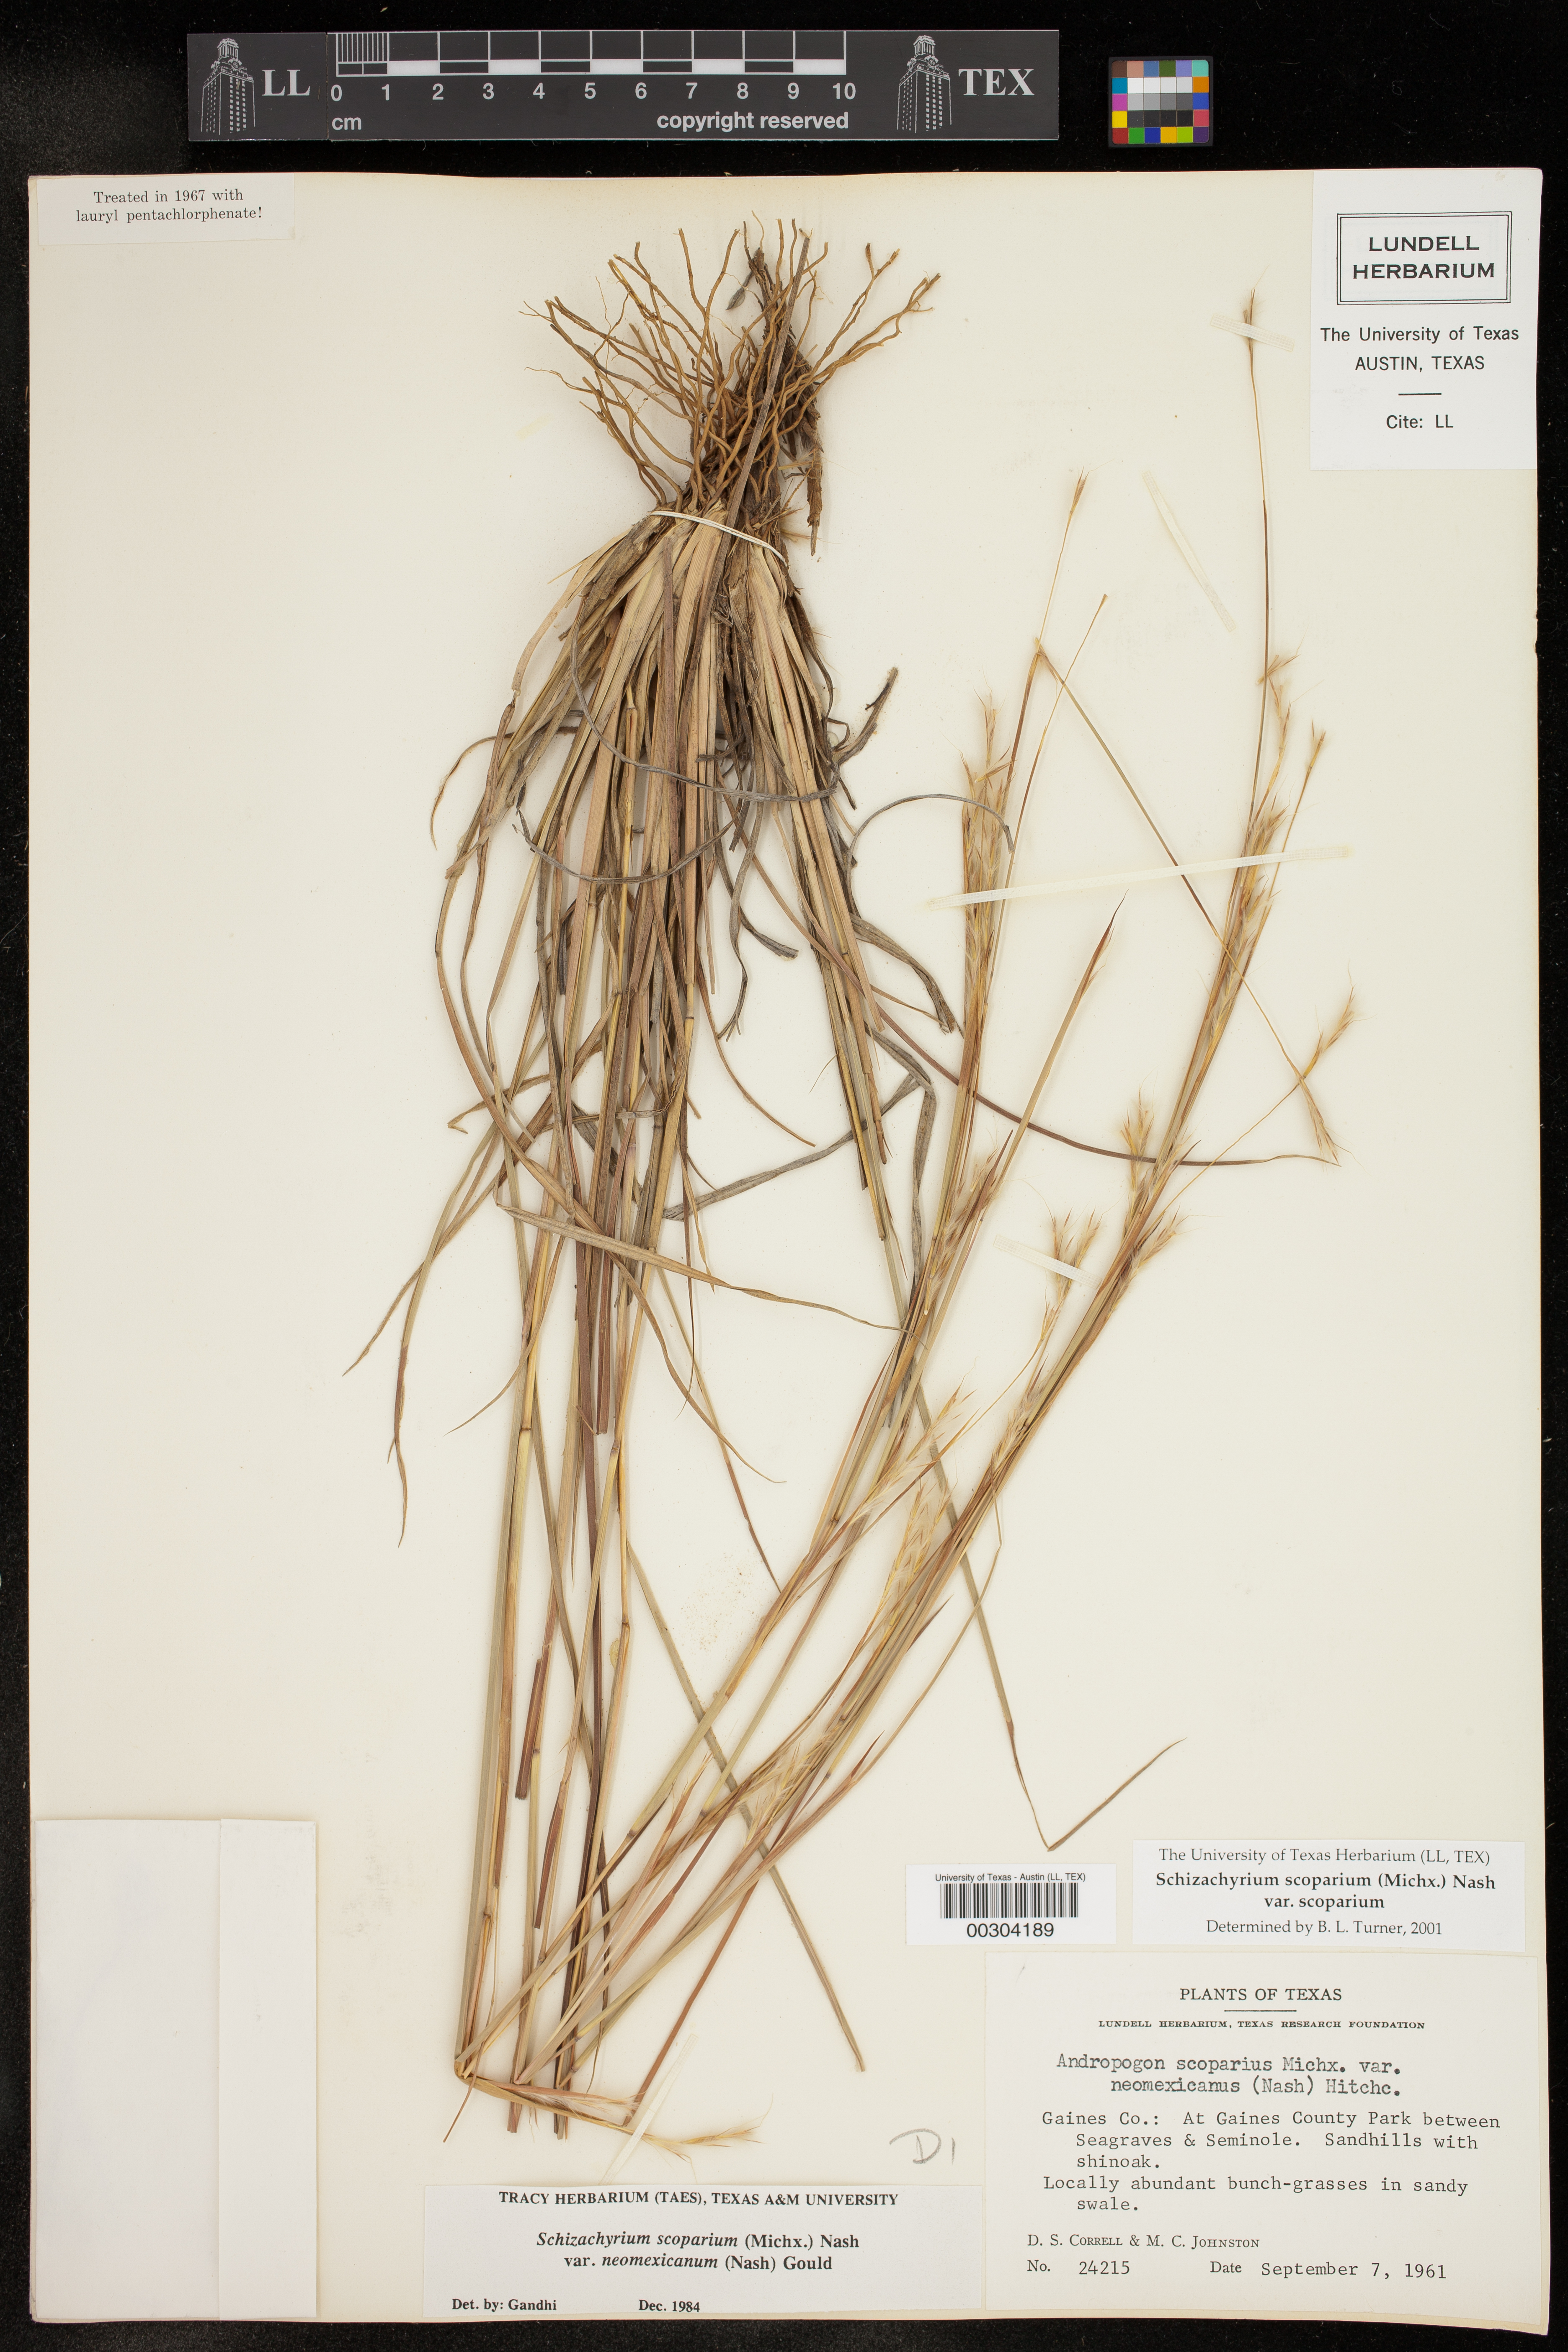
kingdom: Plantae
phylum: Tracheophyta
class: Liliopsida
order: Poales
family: Poaceae
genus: Schizachyrium
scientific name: Schizachyrium scoparium
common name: Little bluestem
